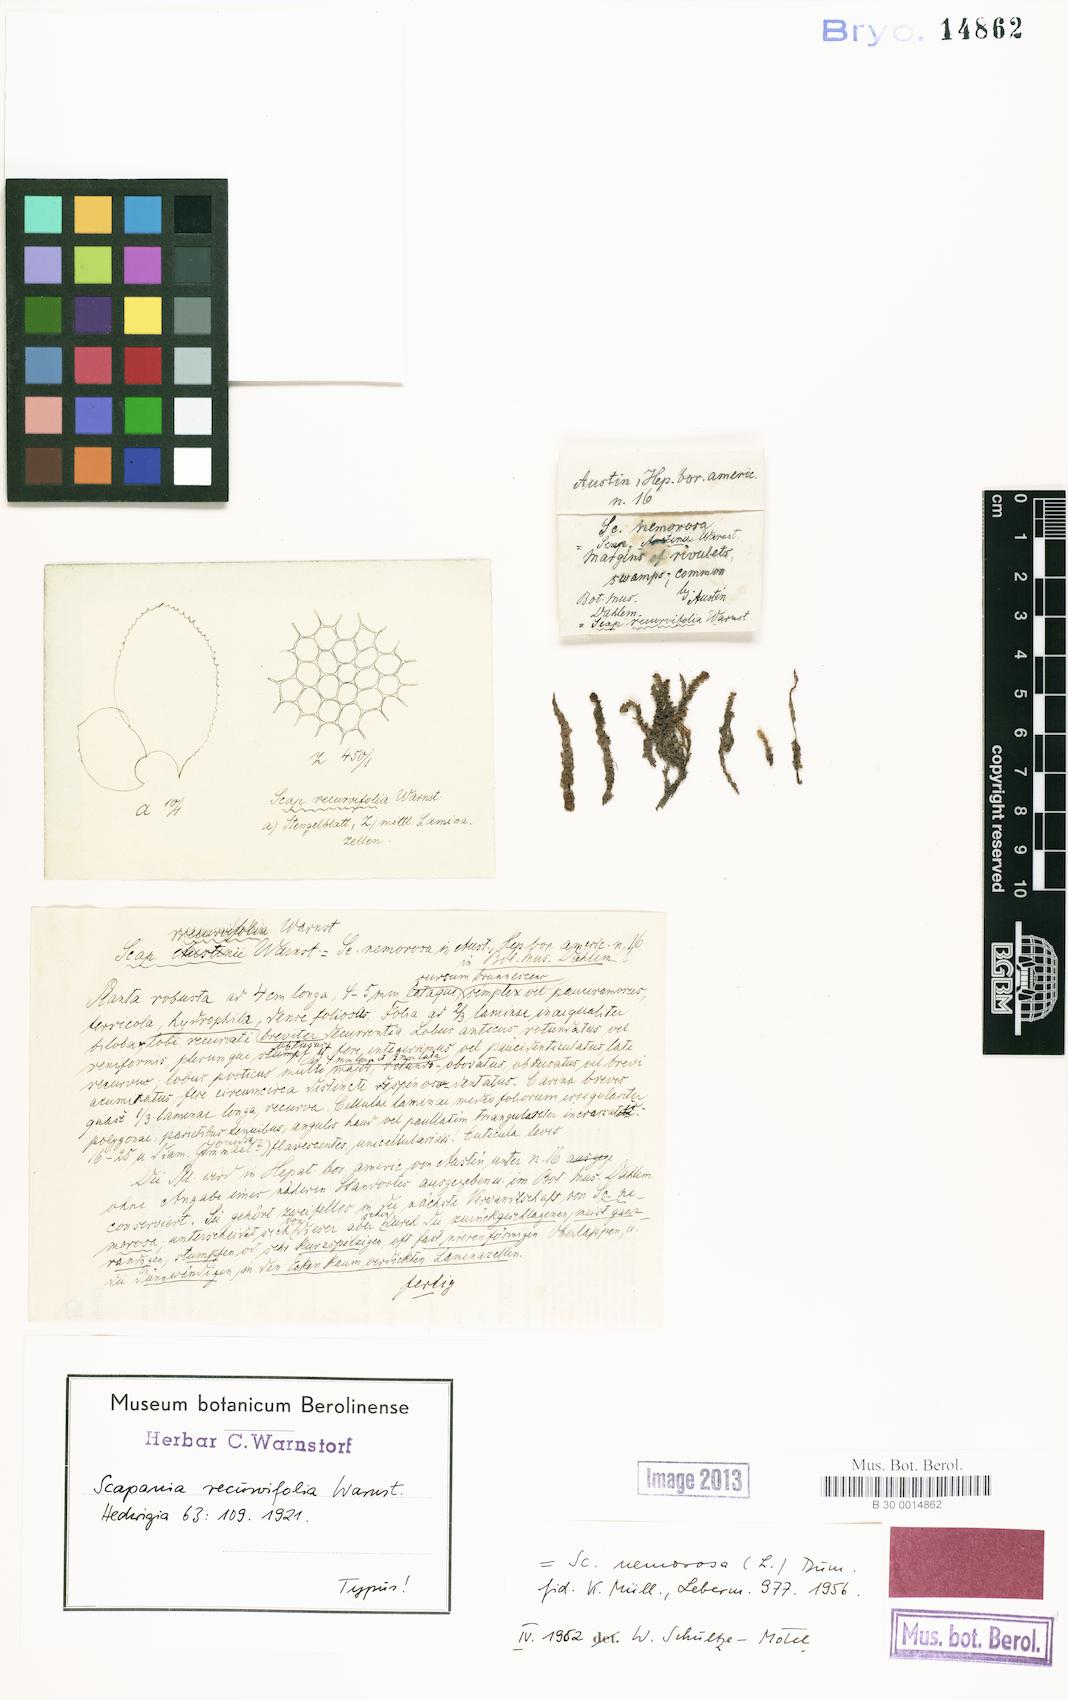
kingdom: Plantae
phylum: Marchantiophyta
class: Jungermanniopsida
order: Jungermanniales
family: Scapaniaceae
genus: Scapania
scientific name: Scapania nemorea
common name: Grove earwort
